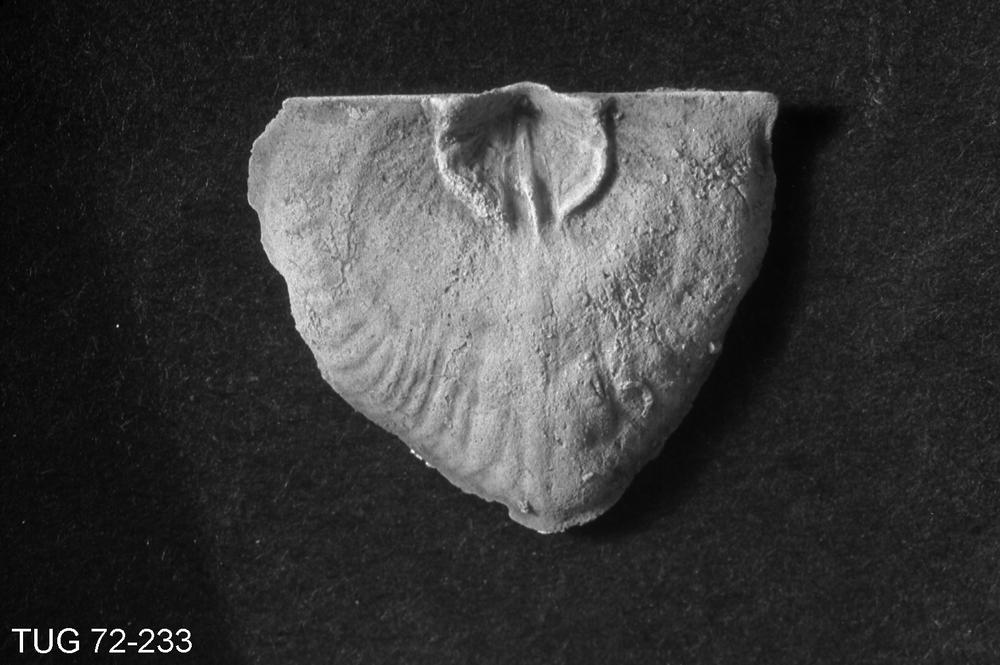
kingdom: Animalia
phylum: Brachiopoda
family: Strophomenidae
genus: Trigrammaria
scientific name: Trigrammaria estonica
